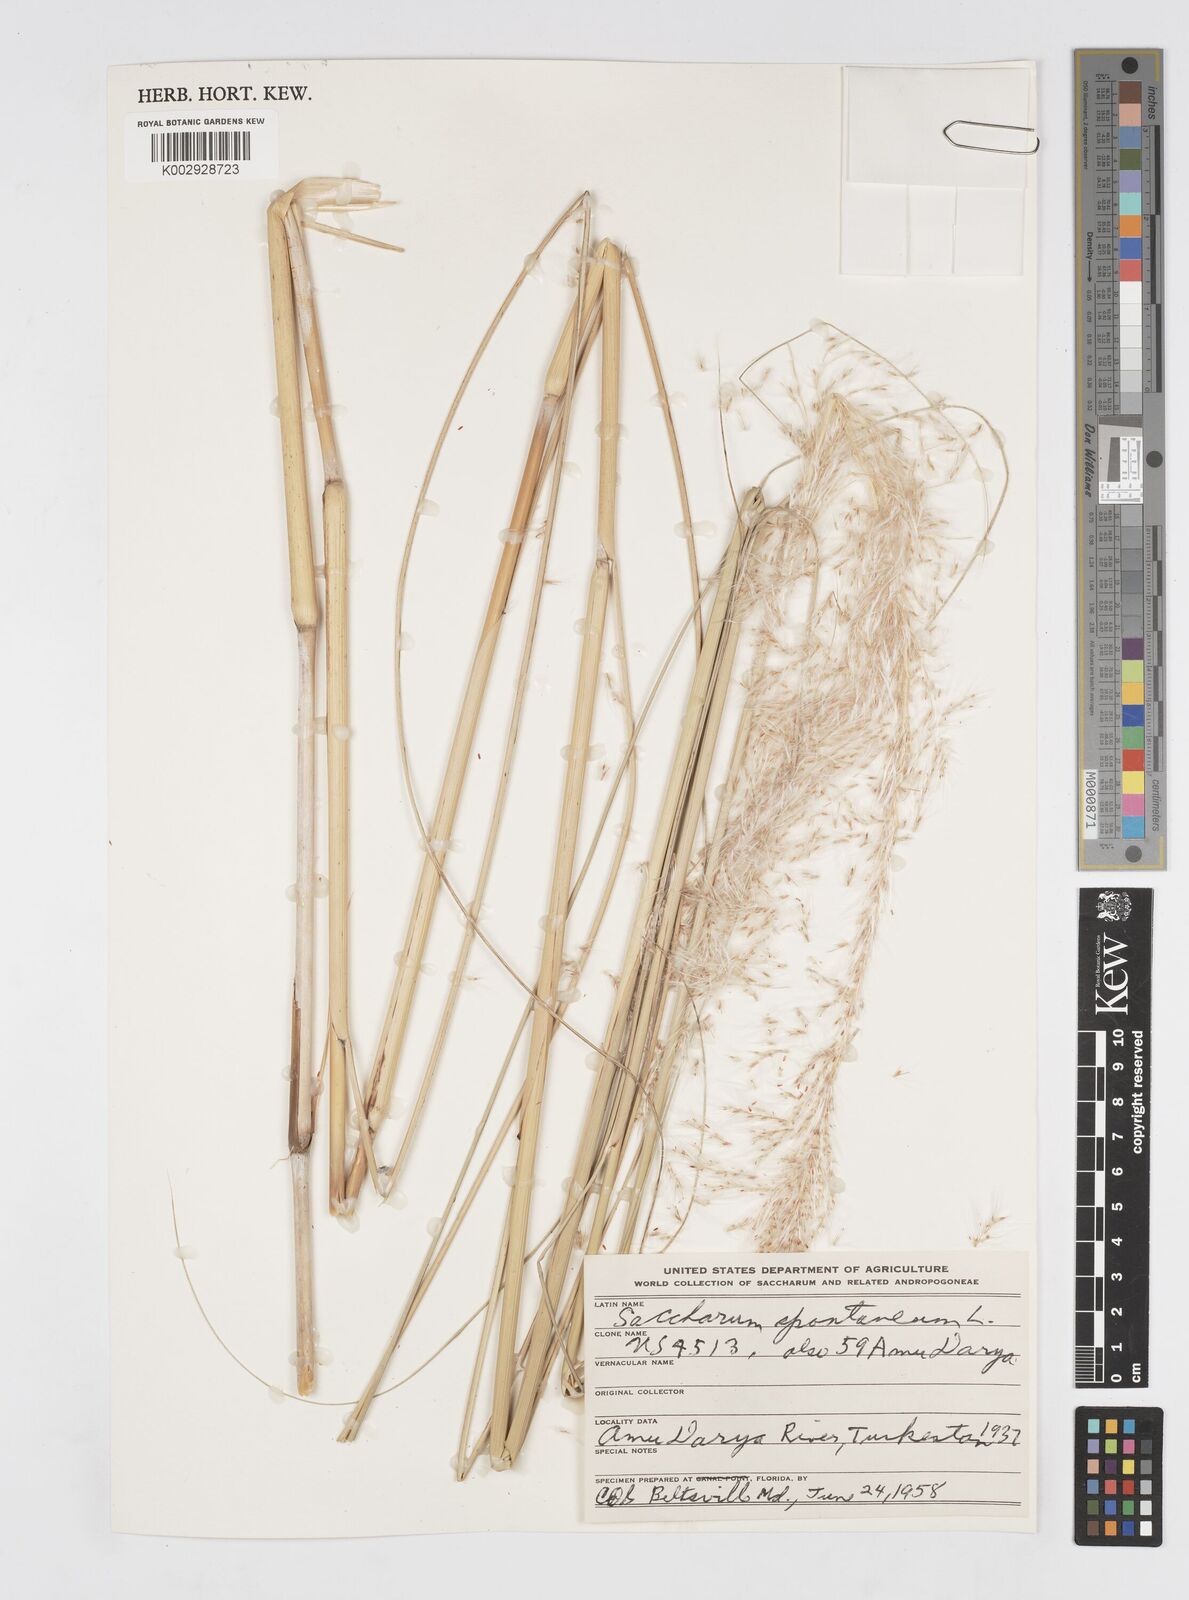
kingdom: Plantae
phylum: Tracheophyta
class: Liliopsida
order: Poales
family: Poaceae
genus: Saccharum
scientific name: Saccharum spontaneum
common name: Wild sugarcane
